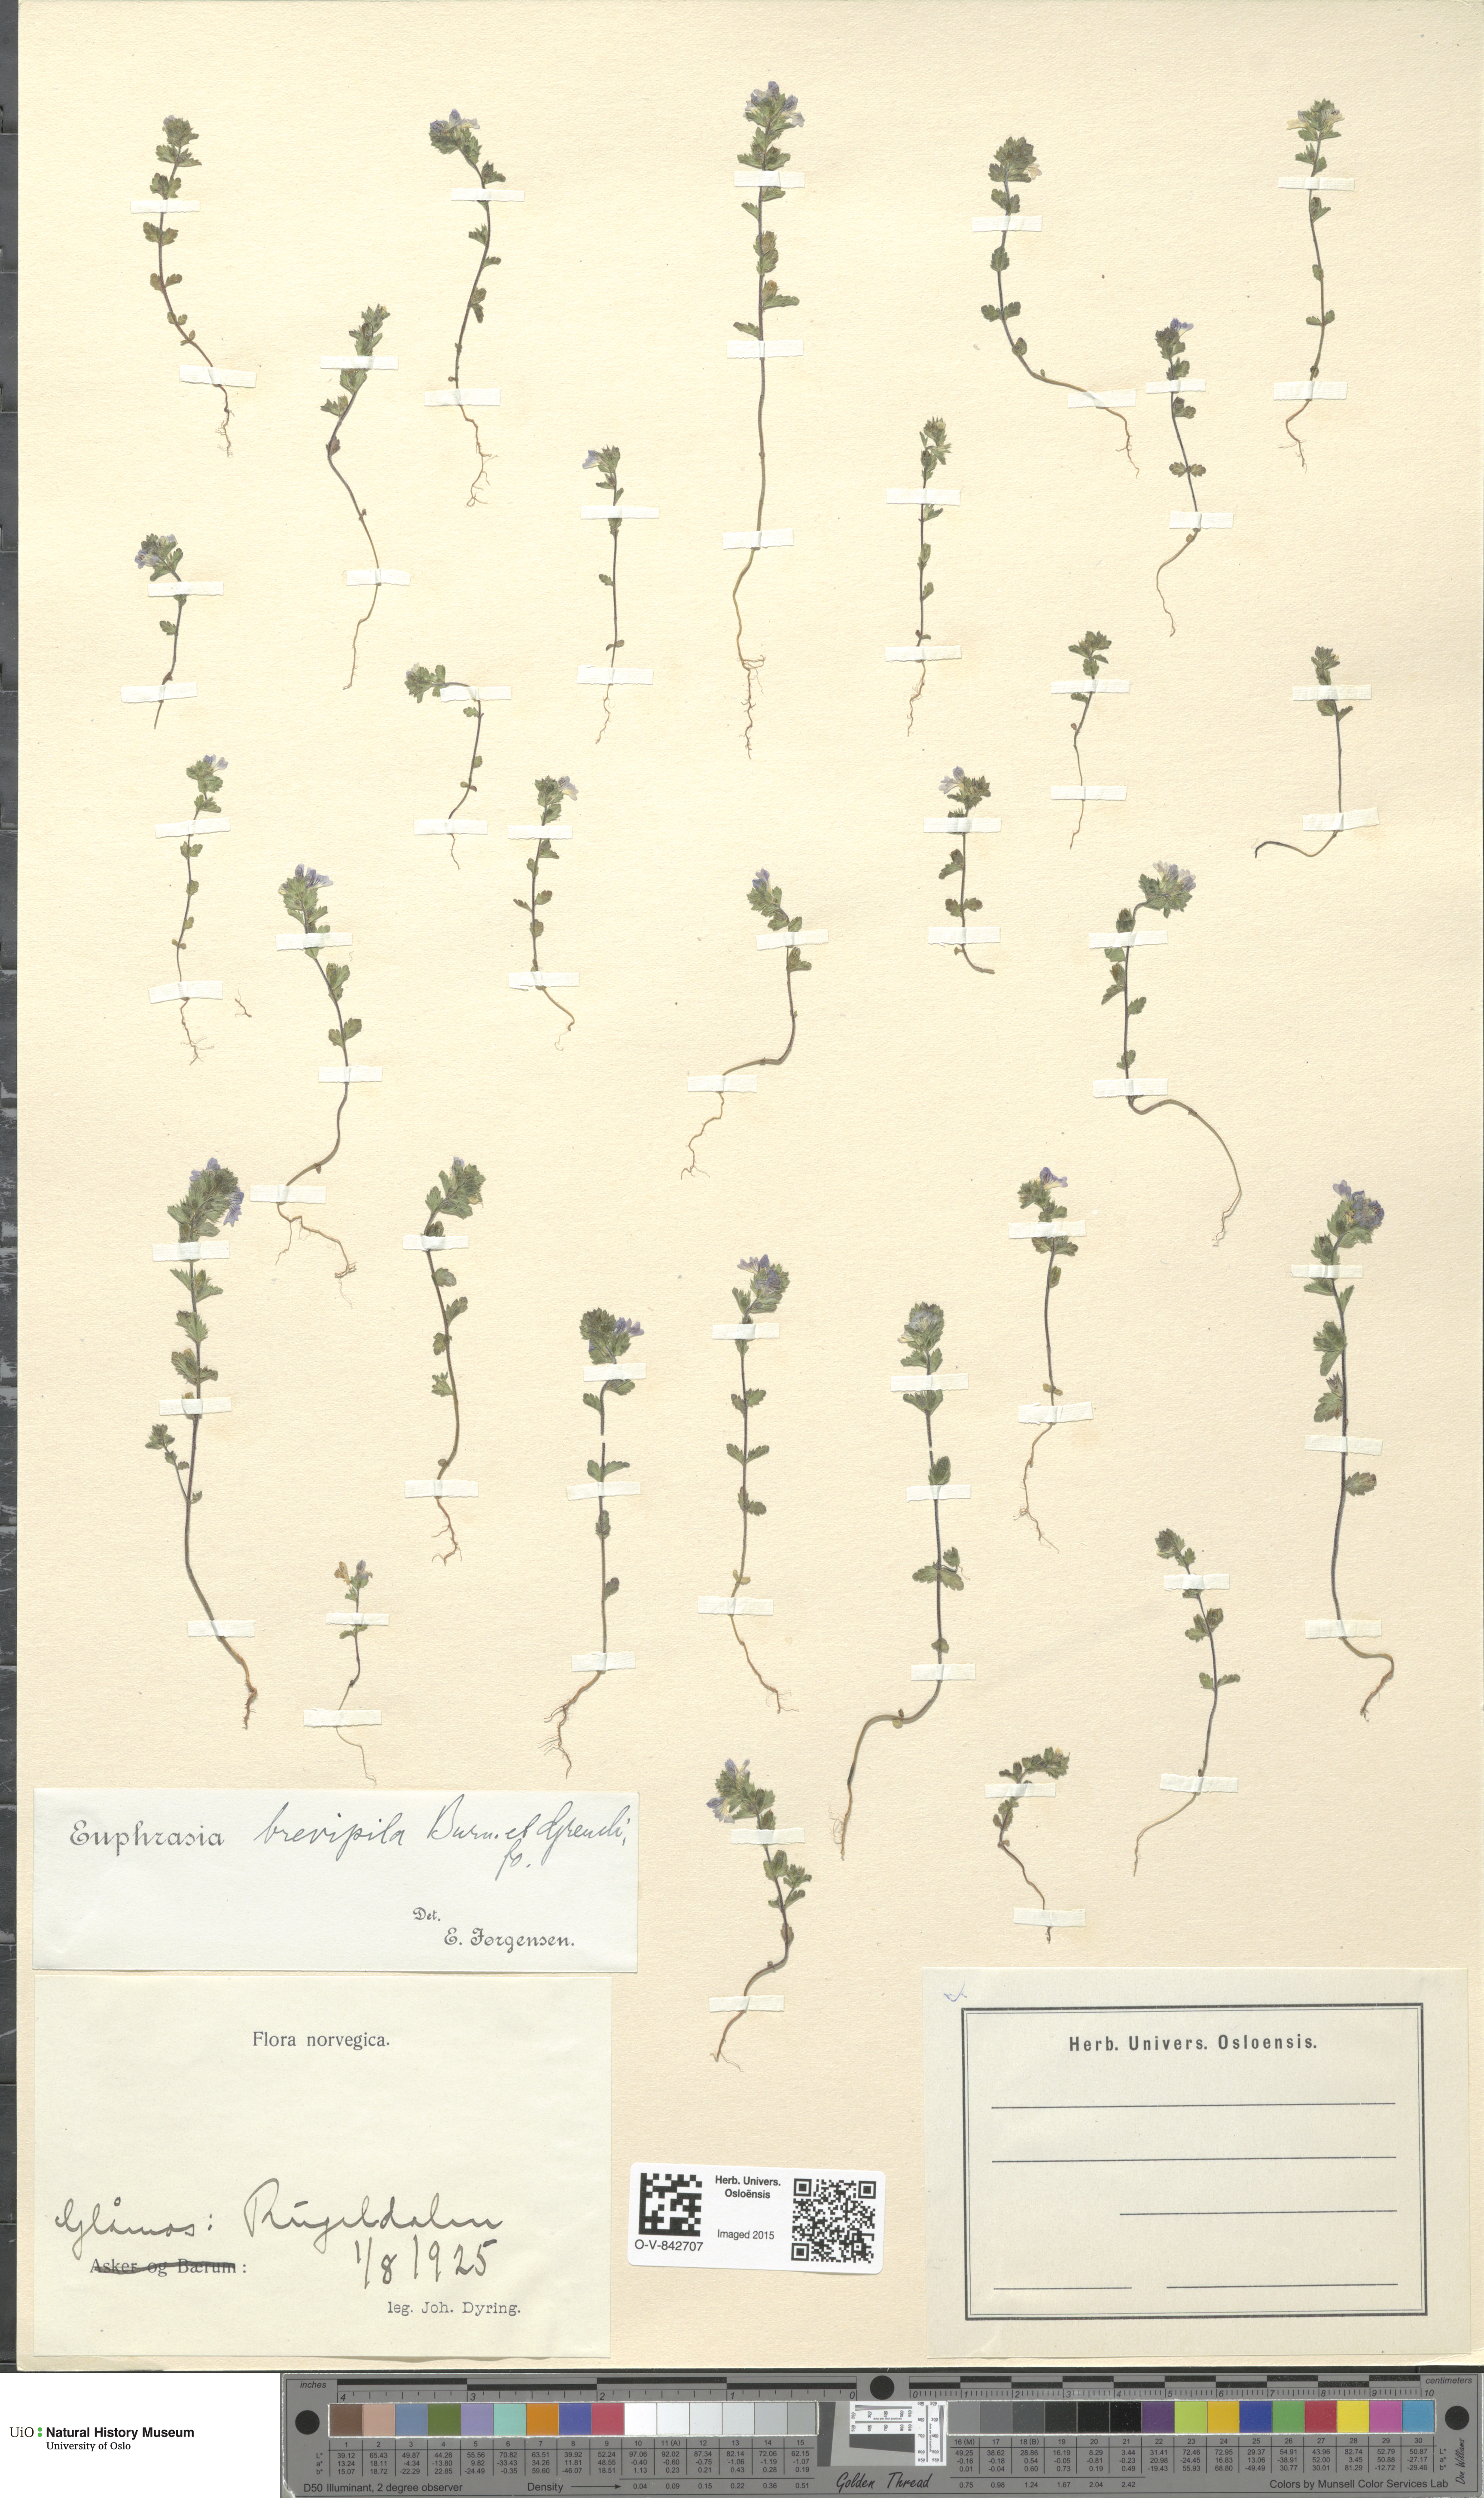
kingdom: Plantae
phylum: Tracheophyta
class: Magnoliopsida
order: Lamiales
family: Orobanchaceae
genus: Euphrasia
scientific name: Euphrasia vernalis
